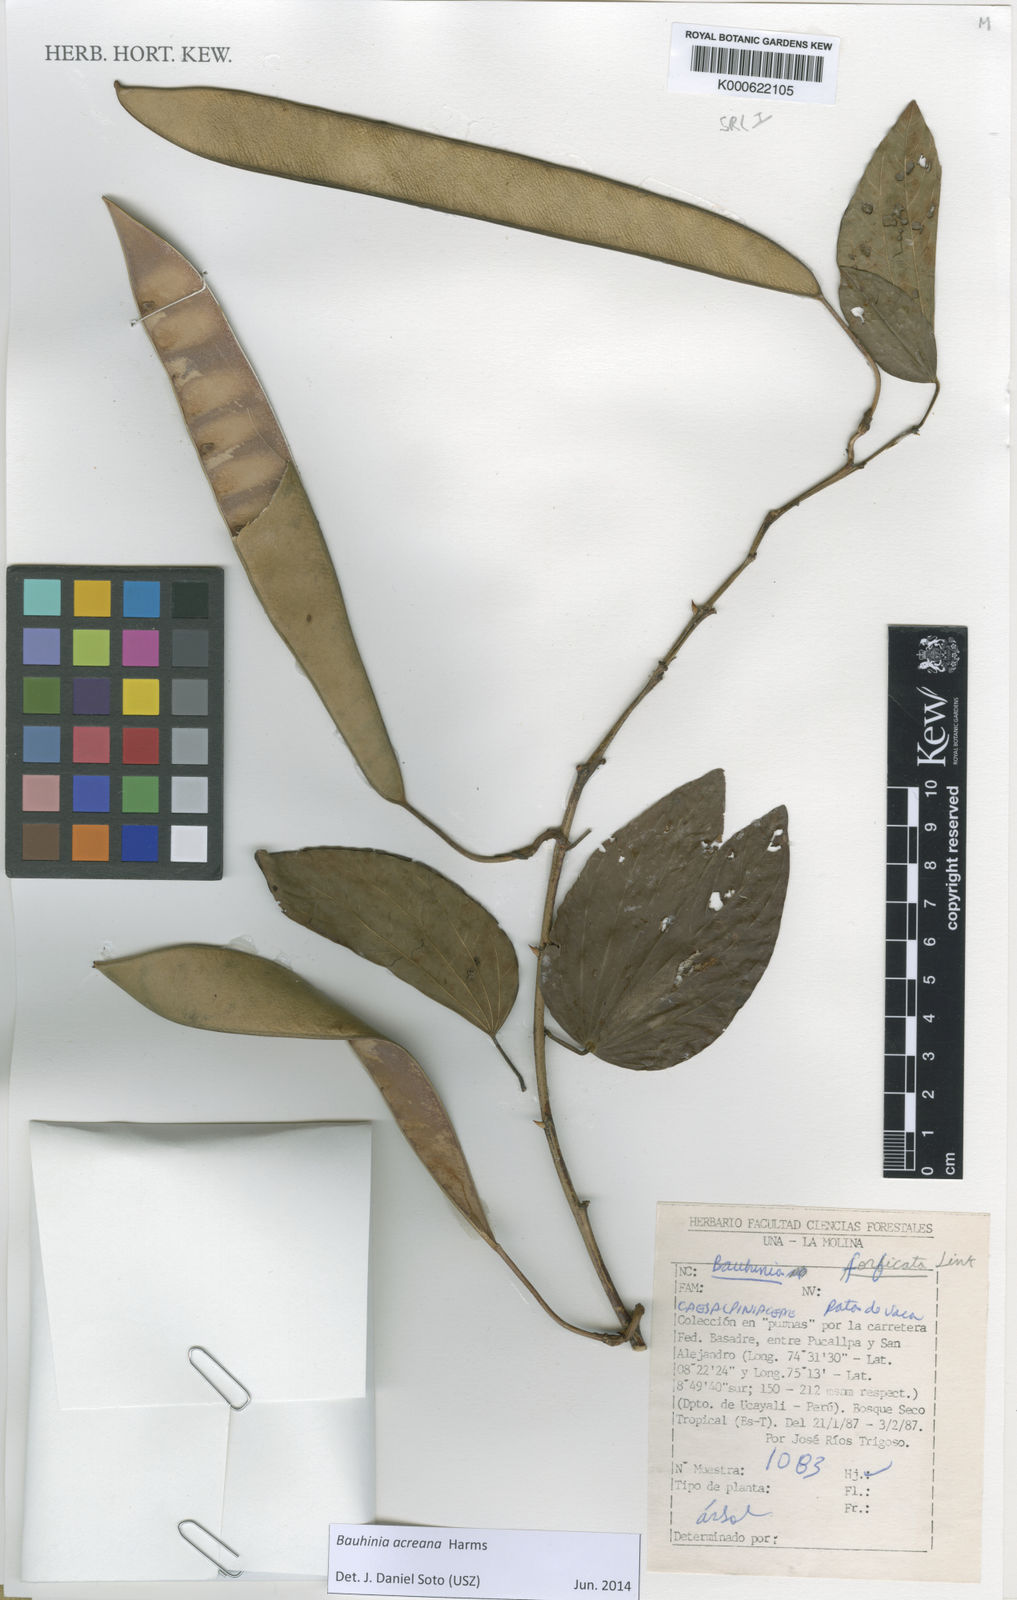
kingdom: Plantae
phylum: Tracheophyta
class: Magnoliopsida
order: Fabales
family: Fabaceae
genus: Bauhinia
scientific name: Bauhinia forficata
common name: Orchid tree
